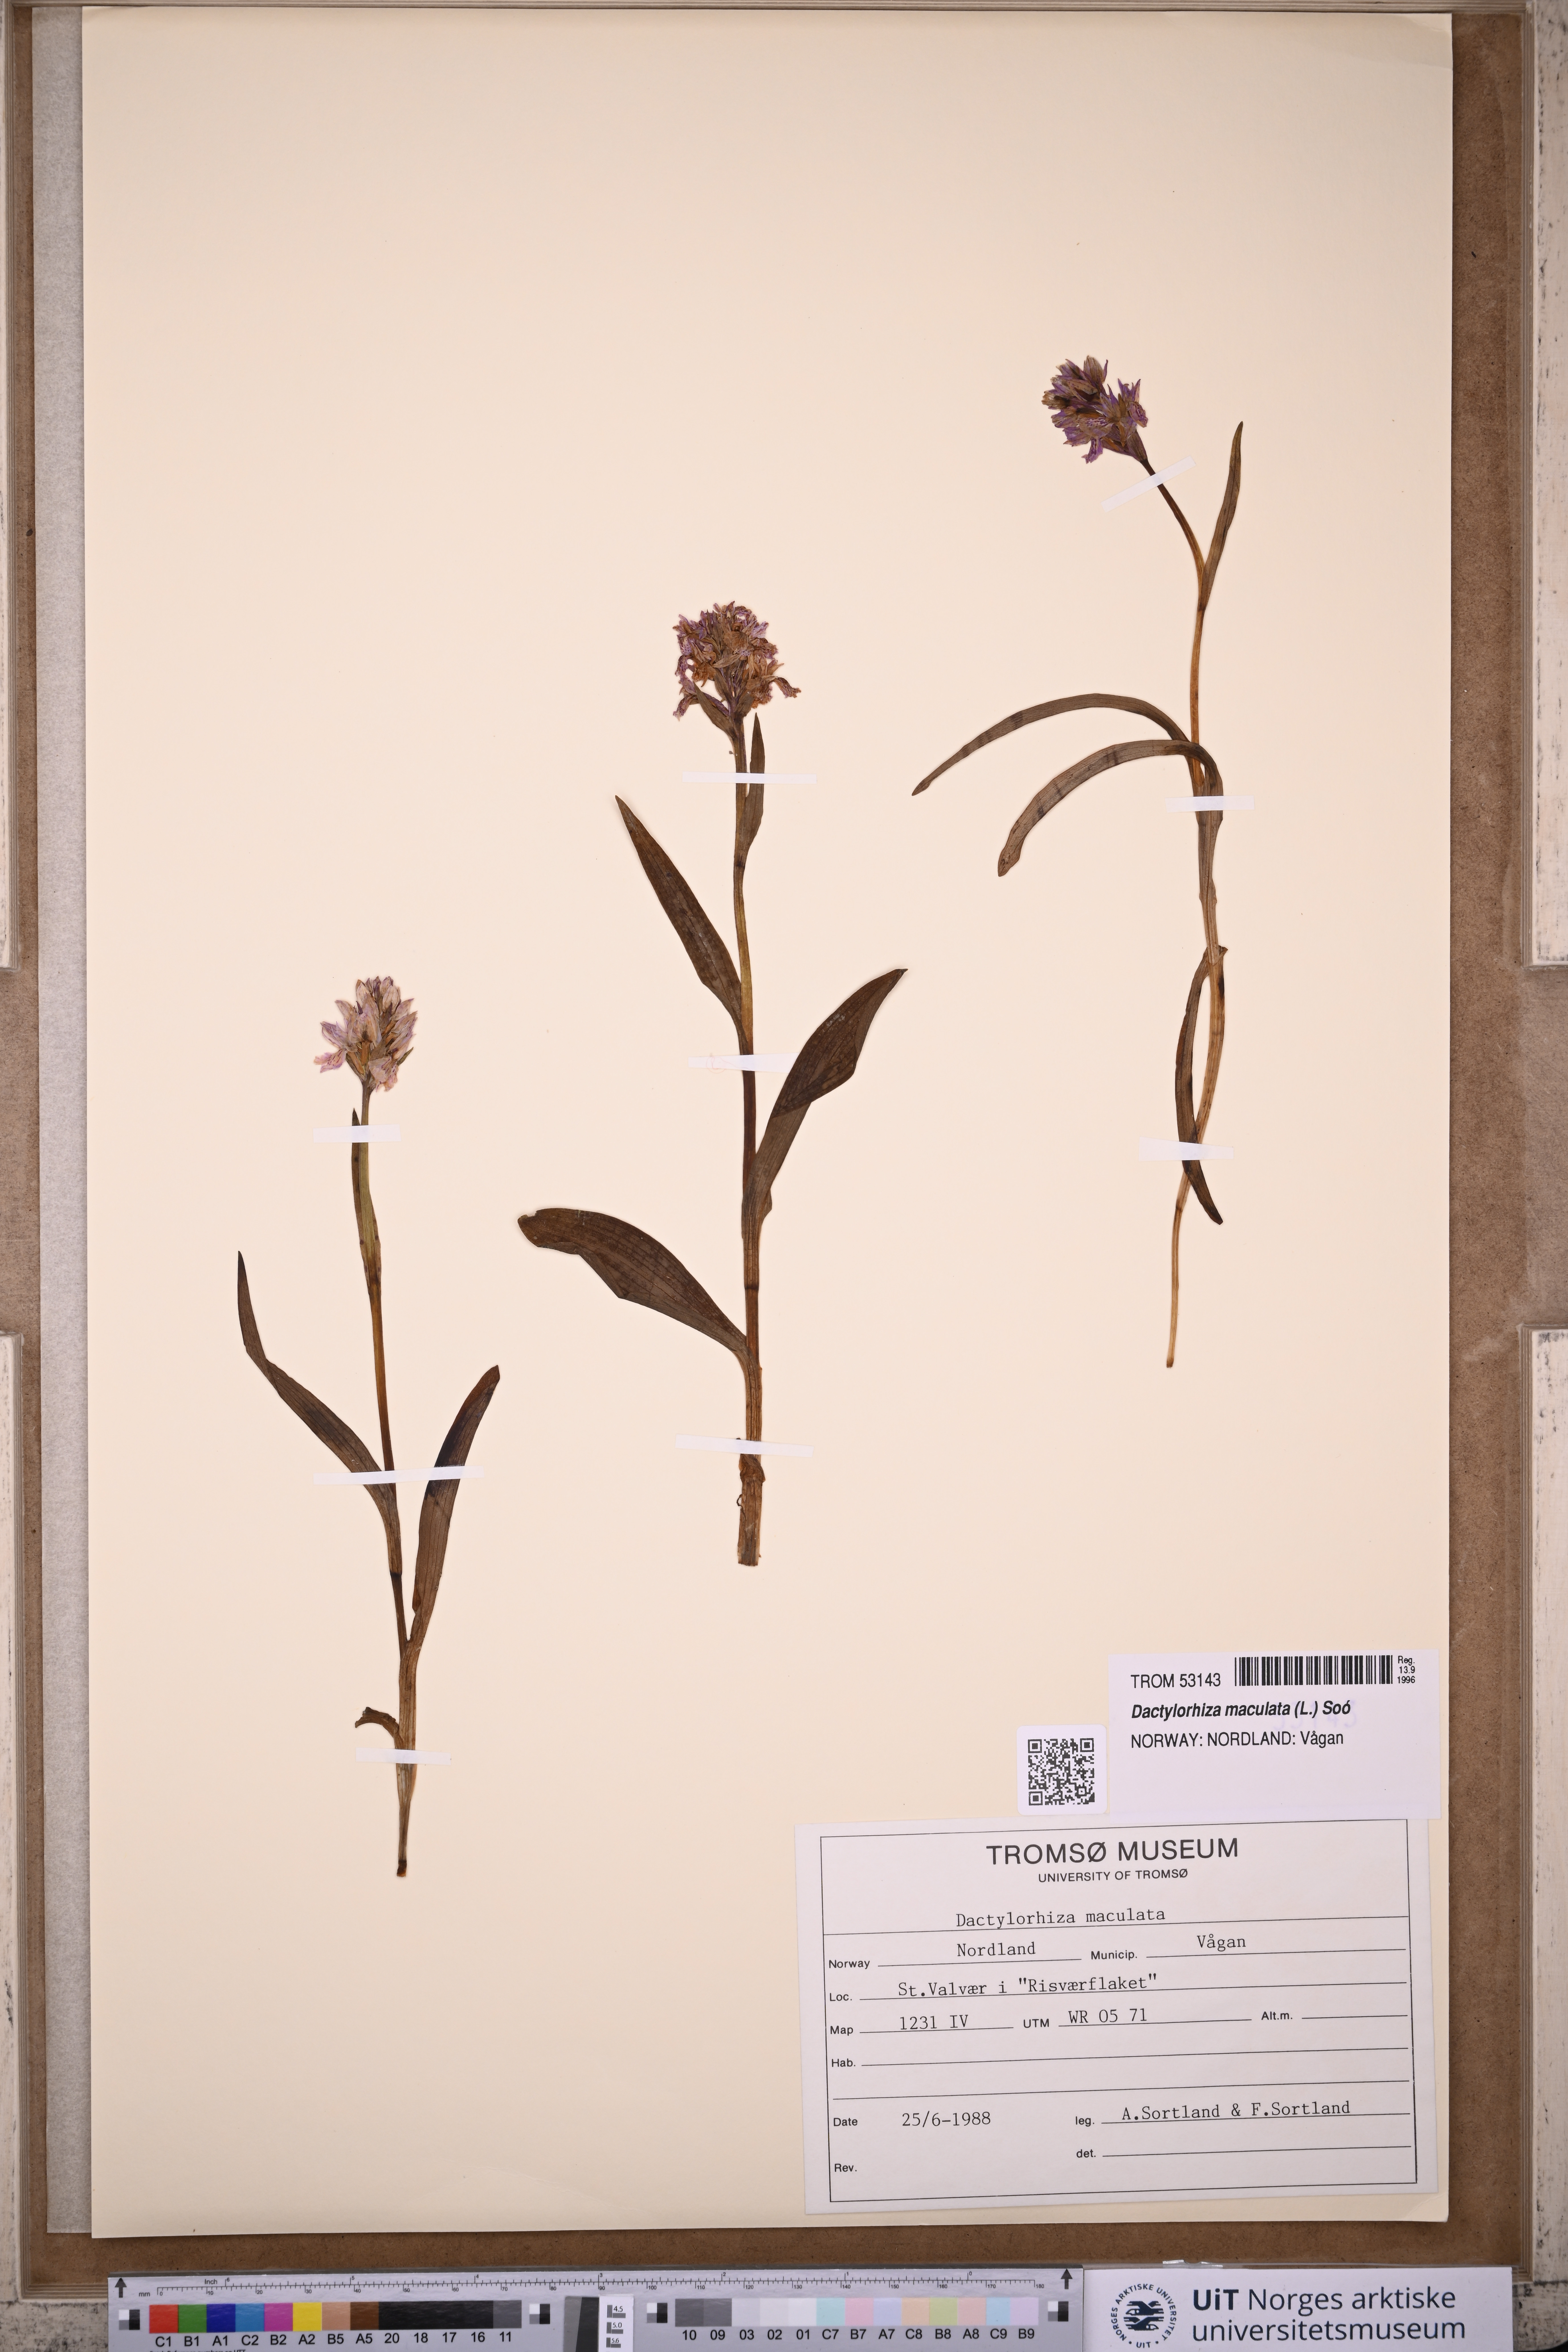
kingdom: Plantae
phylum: Tracheophyta
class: Liliopsida
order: Asparagales
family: Orchidaceae
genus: Dactylorhiza
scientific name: Dactylorhiza maculata
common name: Heath spotted-orchid
